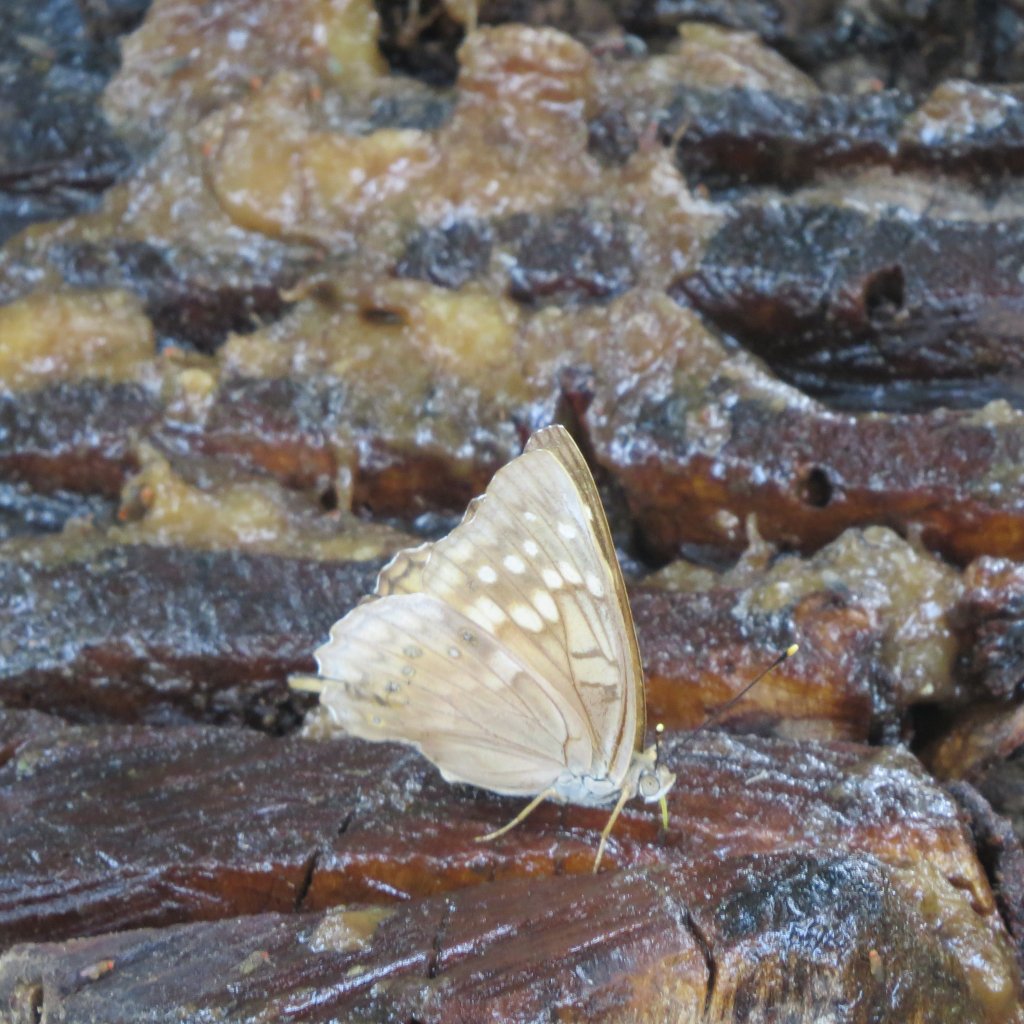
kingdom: Animalia
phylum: Arthropoda
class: Insecta
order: Lepidoptera
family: Nymphalidae
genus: Asterocampa
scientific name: Asterocampa clyton
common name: Tawny Emperor
